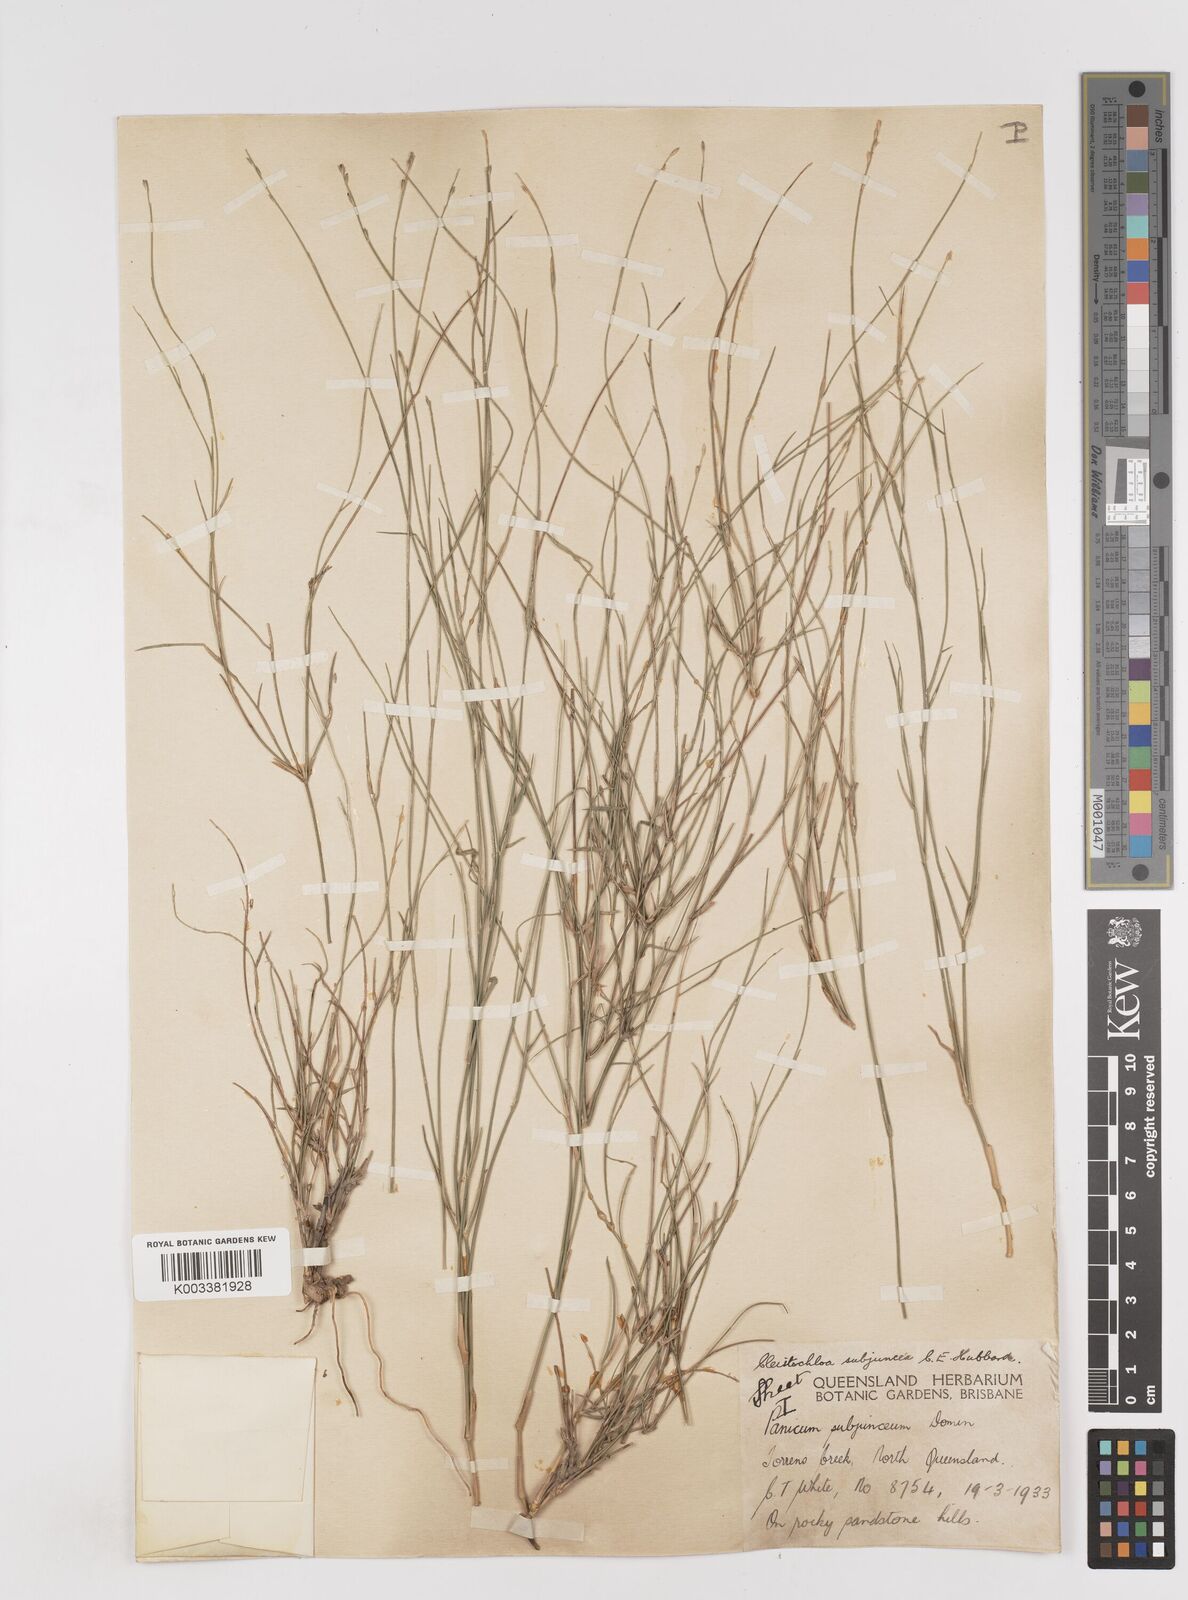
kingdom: Plantae
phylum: Tracheophyta
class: Liliopsida
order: Poales
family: Poaceae
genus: Cleistochloa
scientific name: Cleistochloa subjuncea
